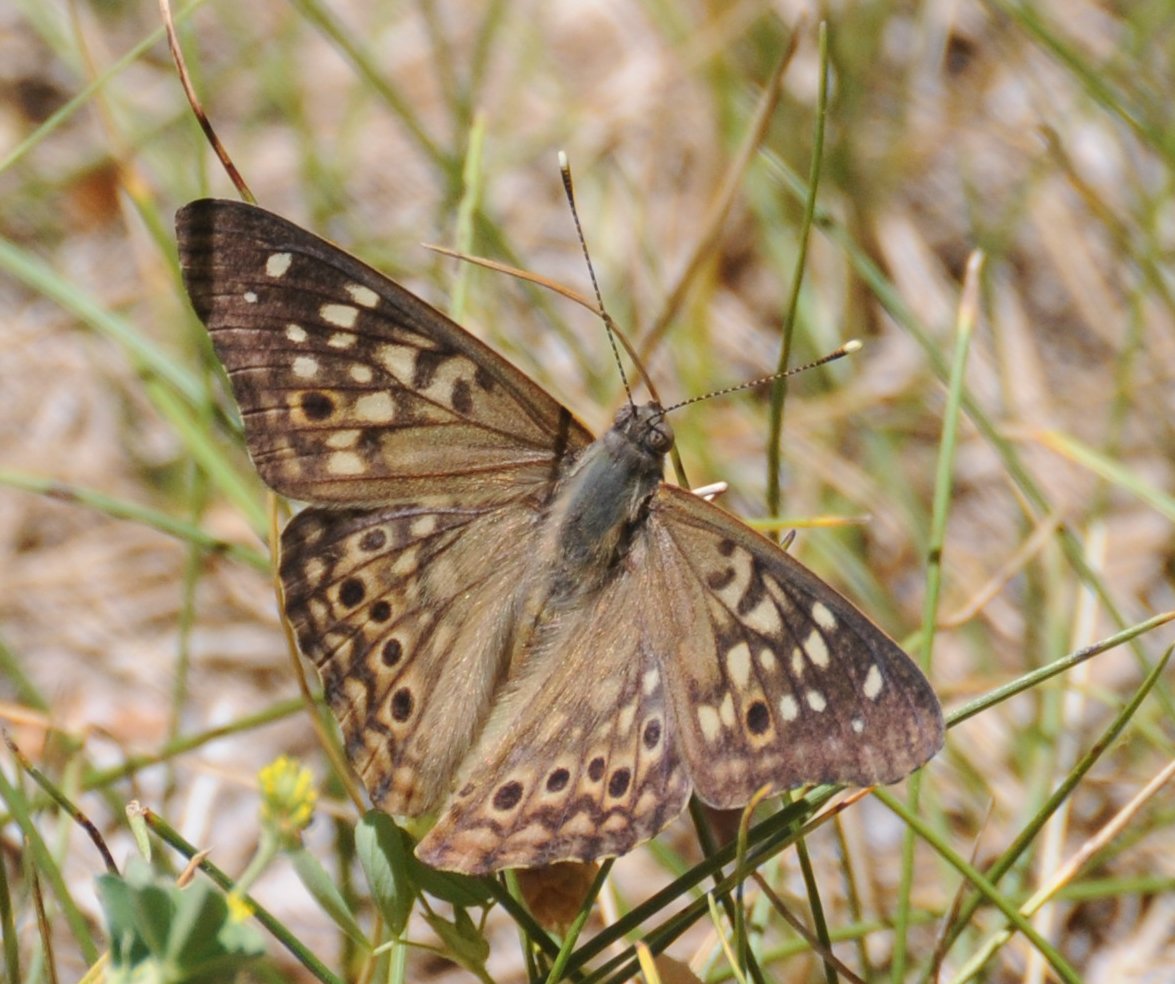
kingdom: Animalia
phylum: Arthropoda
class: Insecta
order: Lepidoptera
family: Nymphalidae
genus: Asterocampa
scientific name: Asterocampa celtis
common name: Hackberry Emperor
